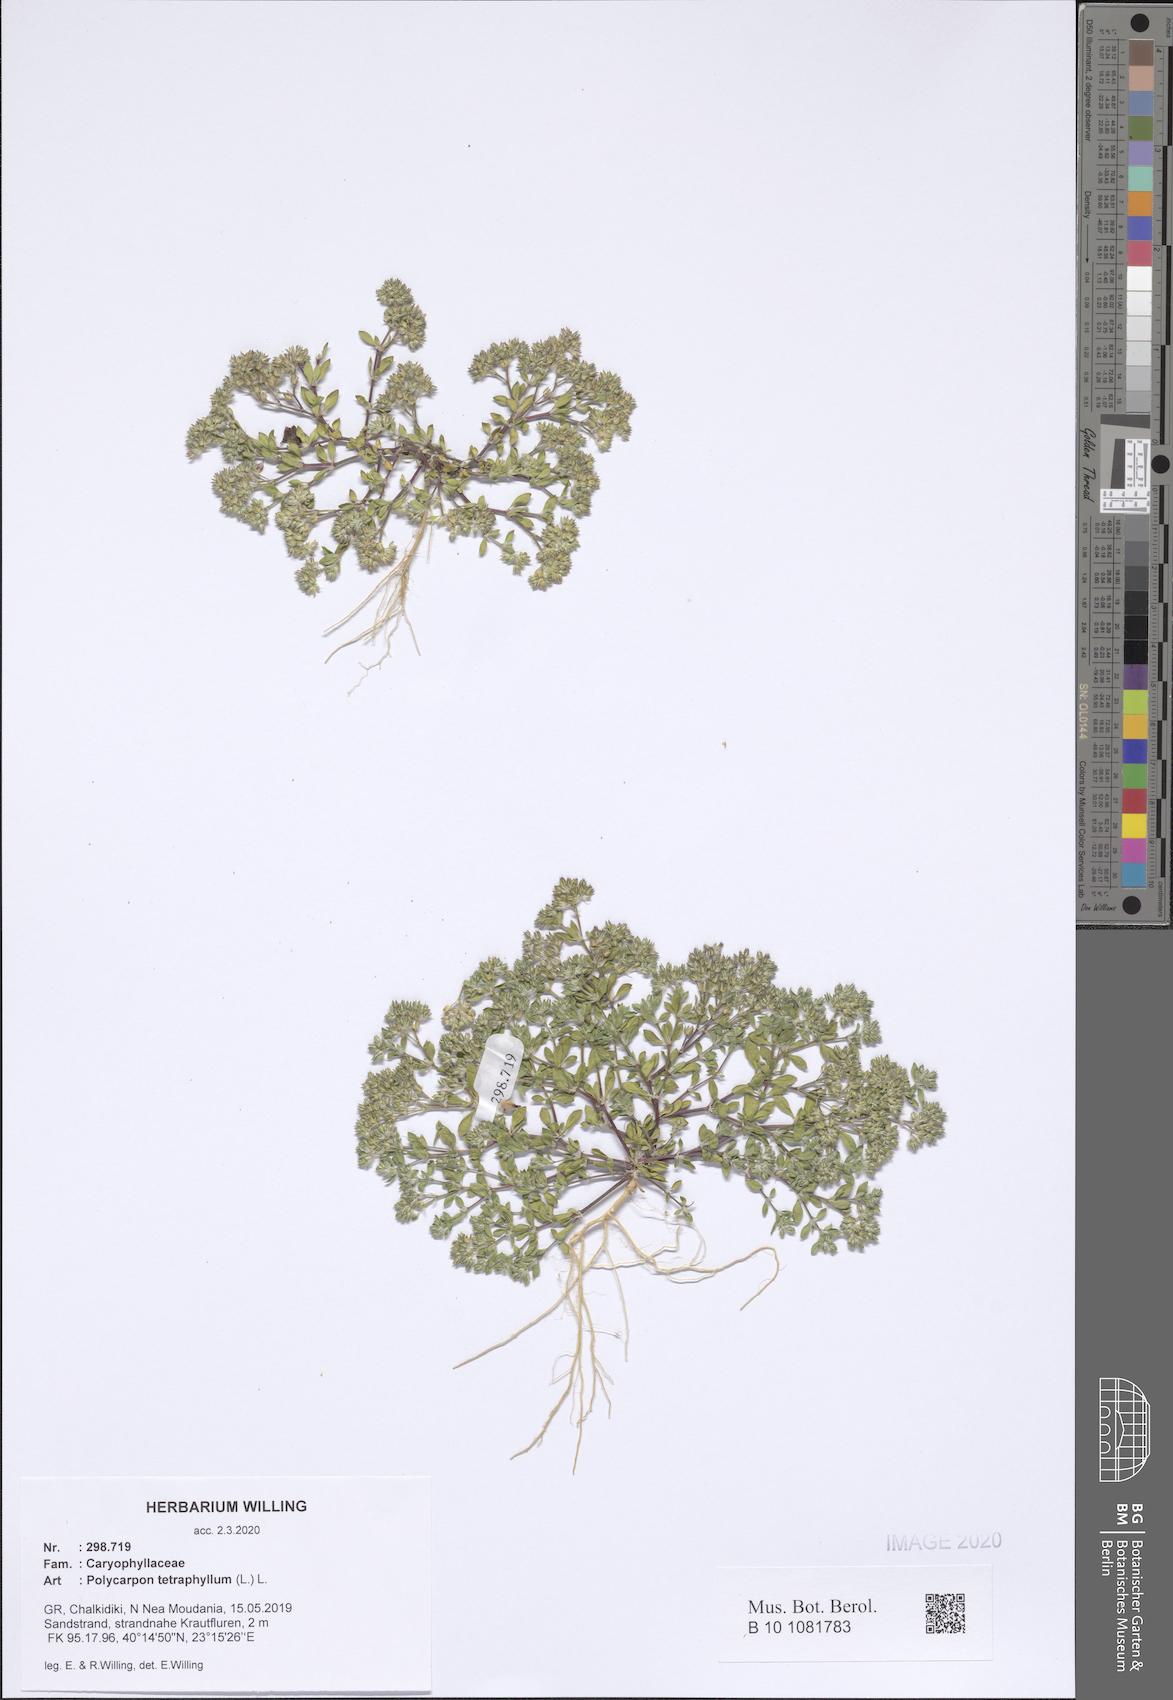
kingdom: Plantae
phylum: Tracheophyta
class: Magnoliopsida
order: Caryophyllales
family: Caryophyllaceae
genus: Polycarpon
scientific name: Polycarpon tetraphyllum
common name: Four-leaved all-seed
